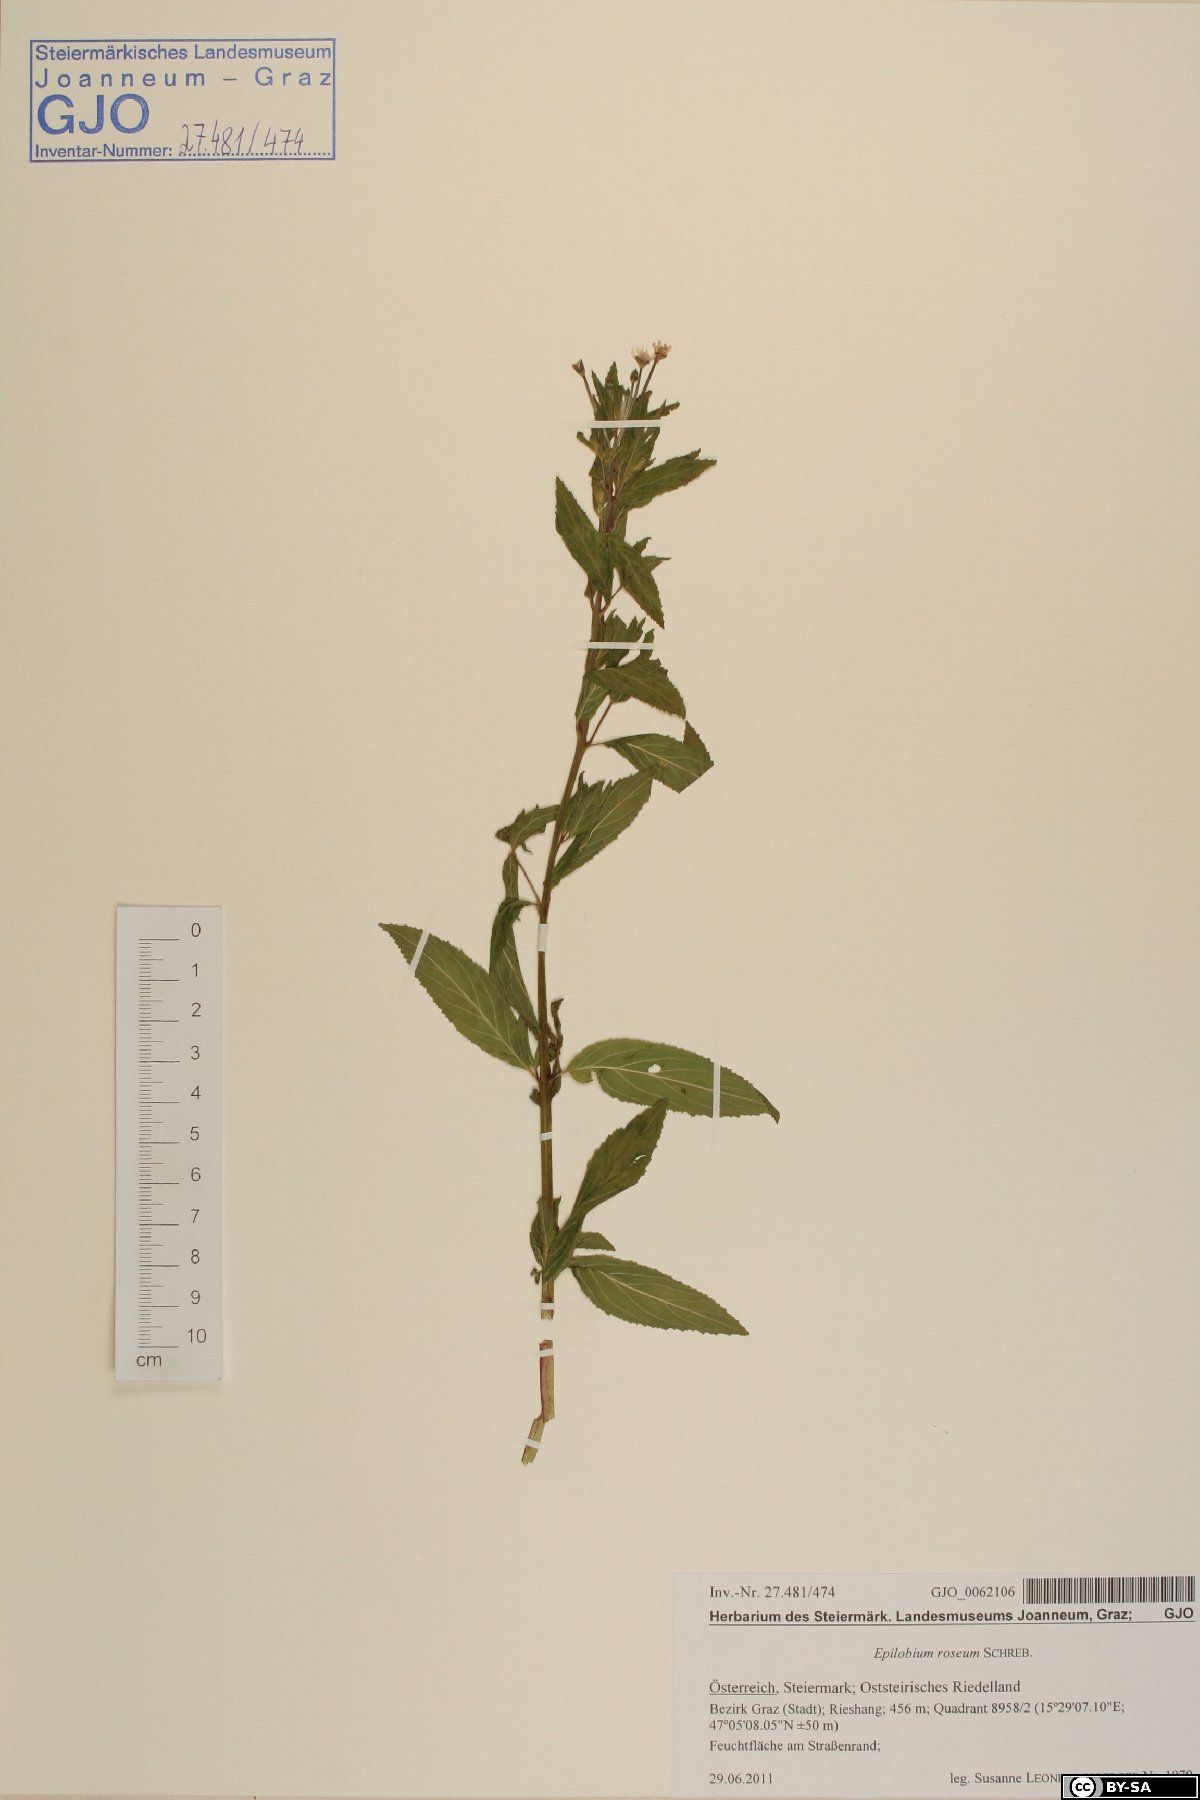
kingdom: Plantae
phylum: Tracheophyta
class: Magnoliopsida
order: Myrtales
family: Onagraceae
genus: Epilobium
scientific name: Epilobium roseum
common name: Pale willowherb
